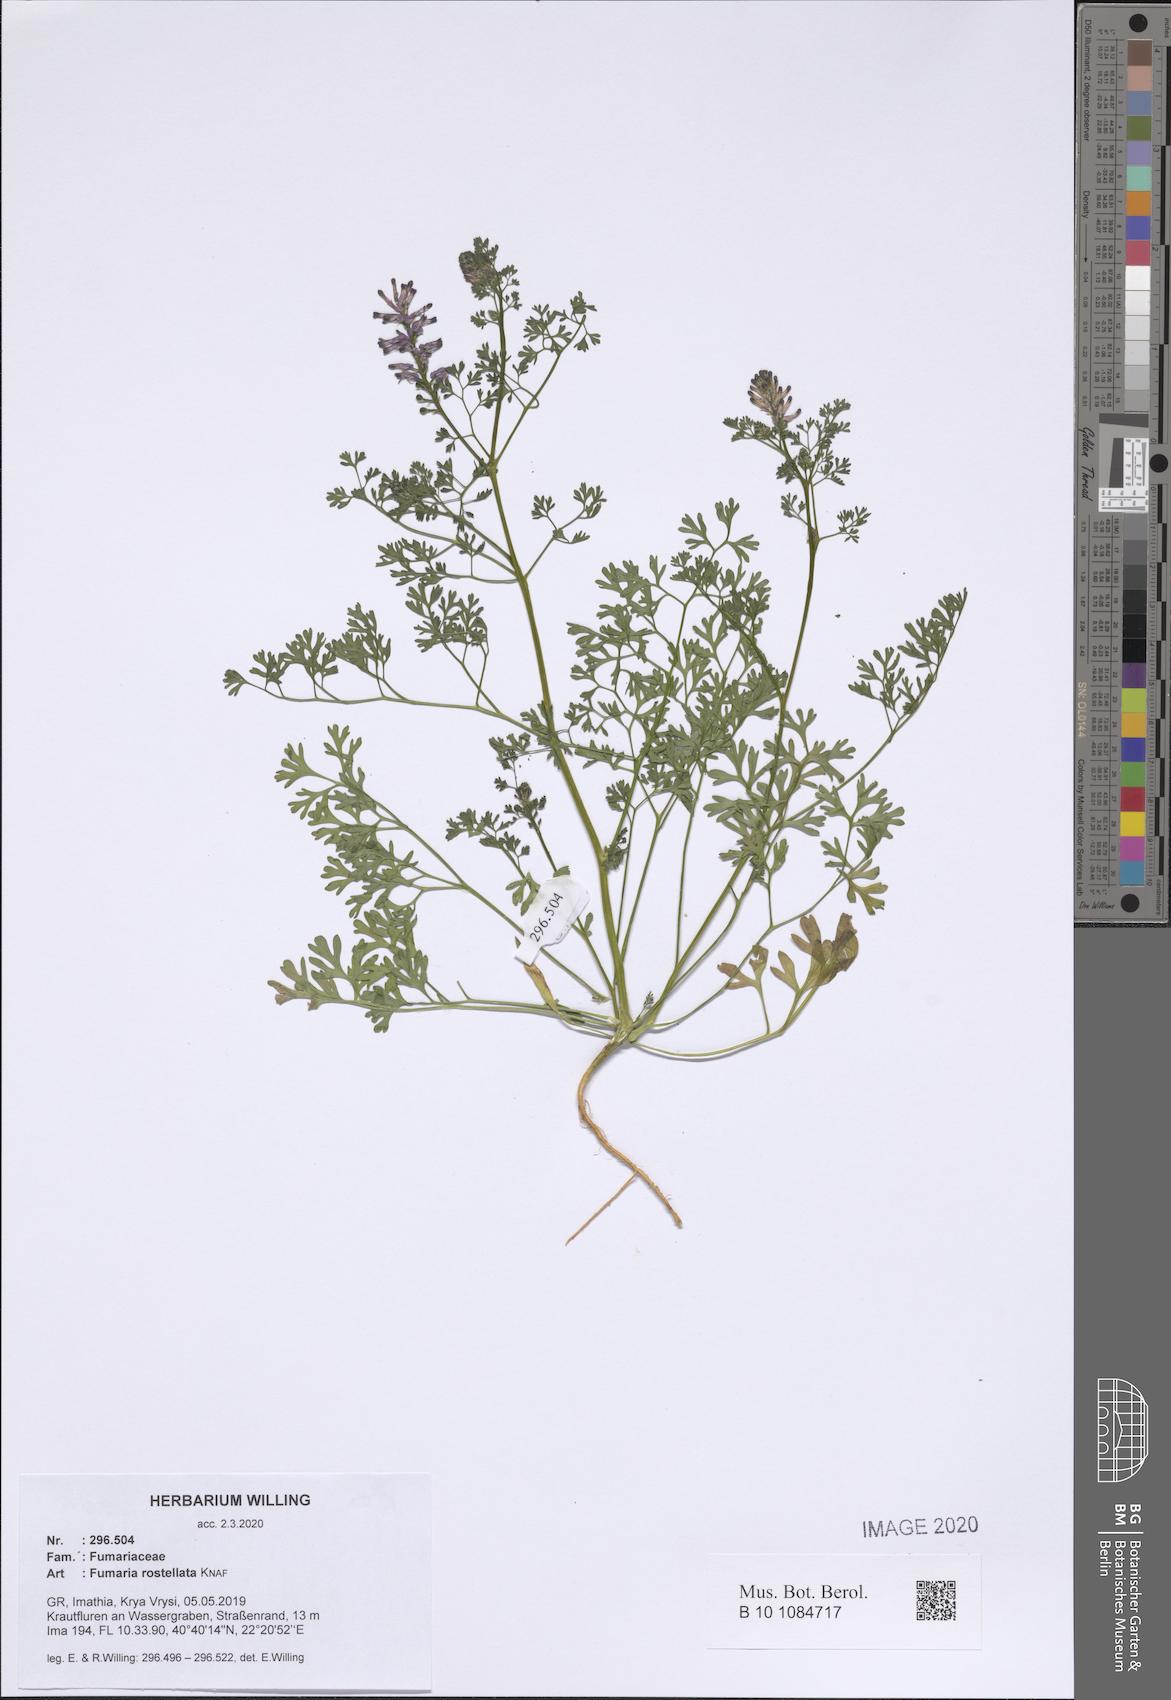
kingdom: Plantae
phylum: Tracheophyta
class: Magnoliopsida
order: Ranunculales
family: Papaveraceae
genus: Fumaria
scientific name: Fumaria rostellata
